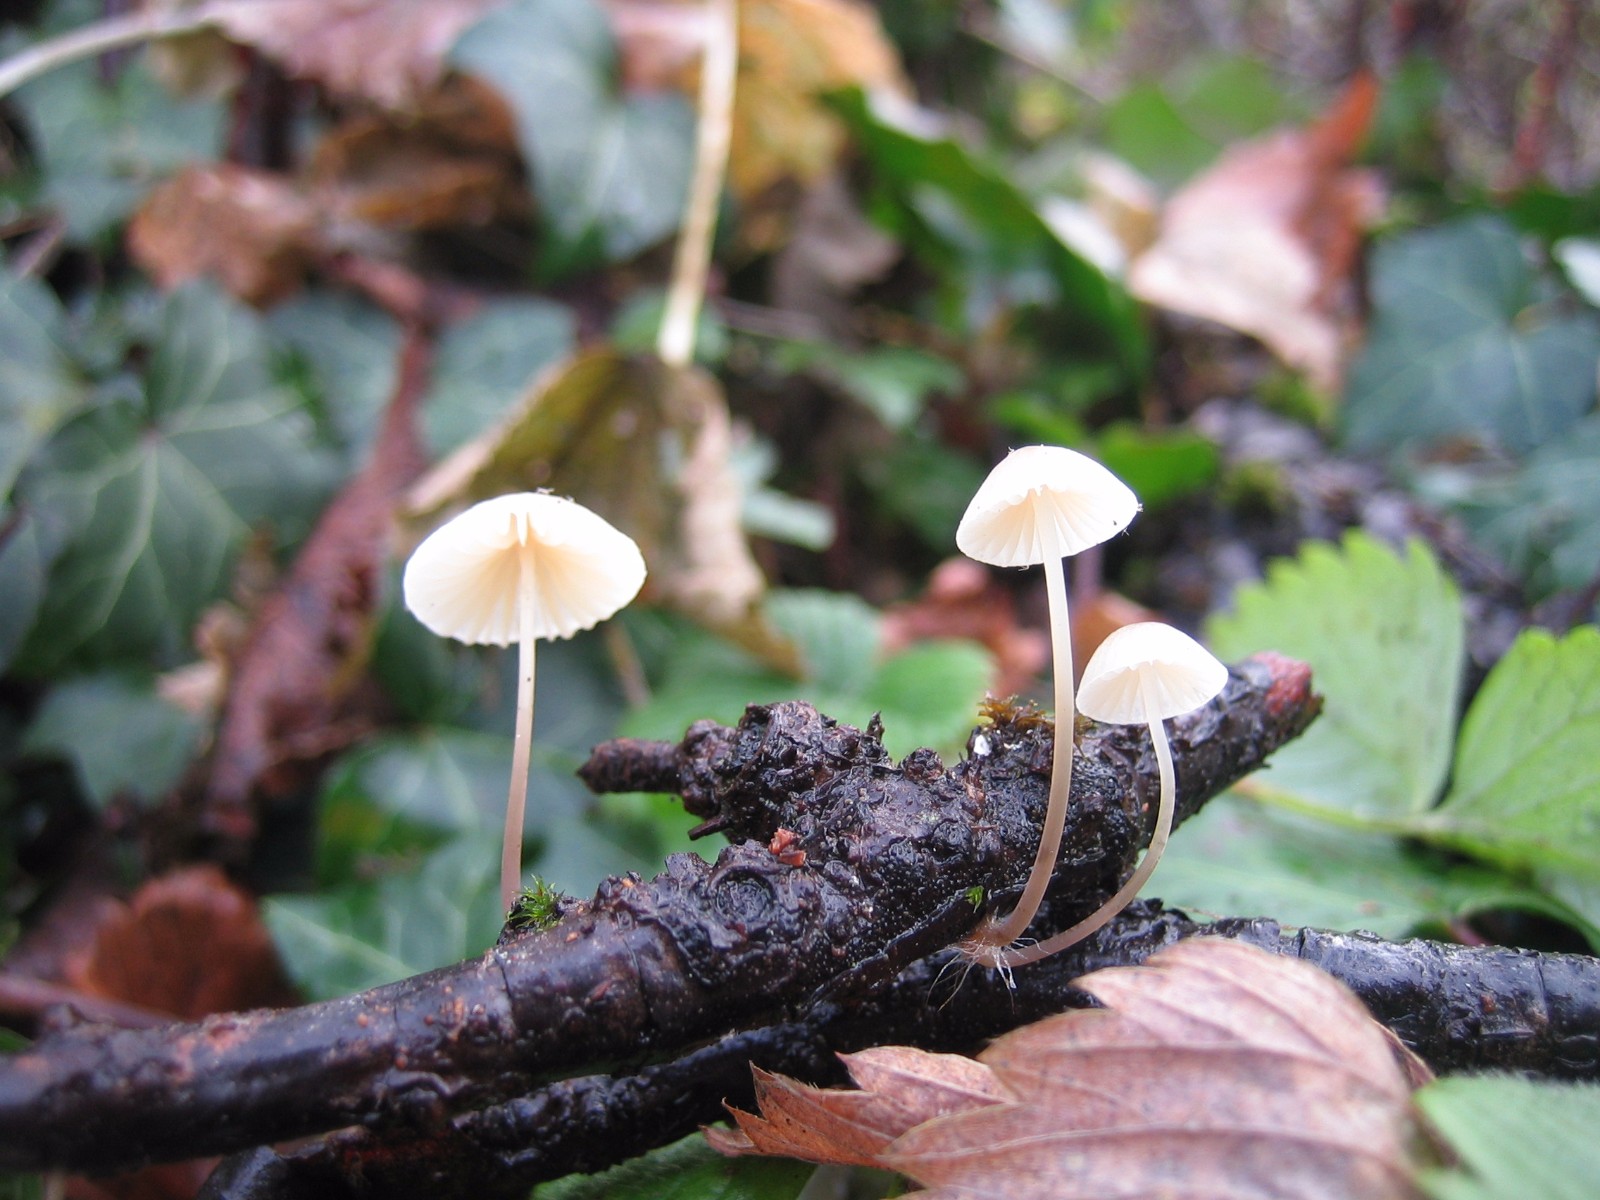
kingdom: Fungi
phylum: Basidiomycota
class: Agaricomycetes
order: Agaricales
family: Mycenaceae
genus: Mycena
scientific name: Mycena arcangeliana
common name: oliven-huesvamp
